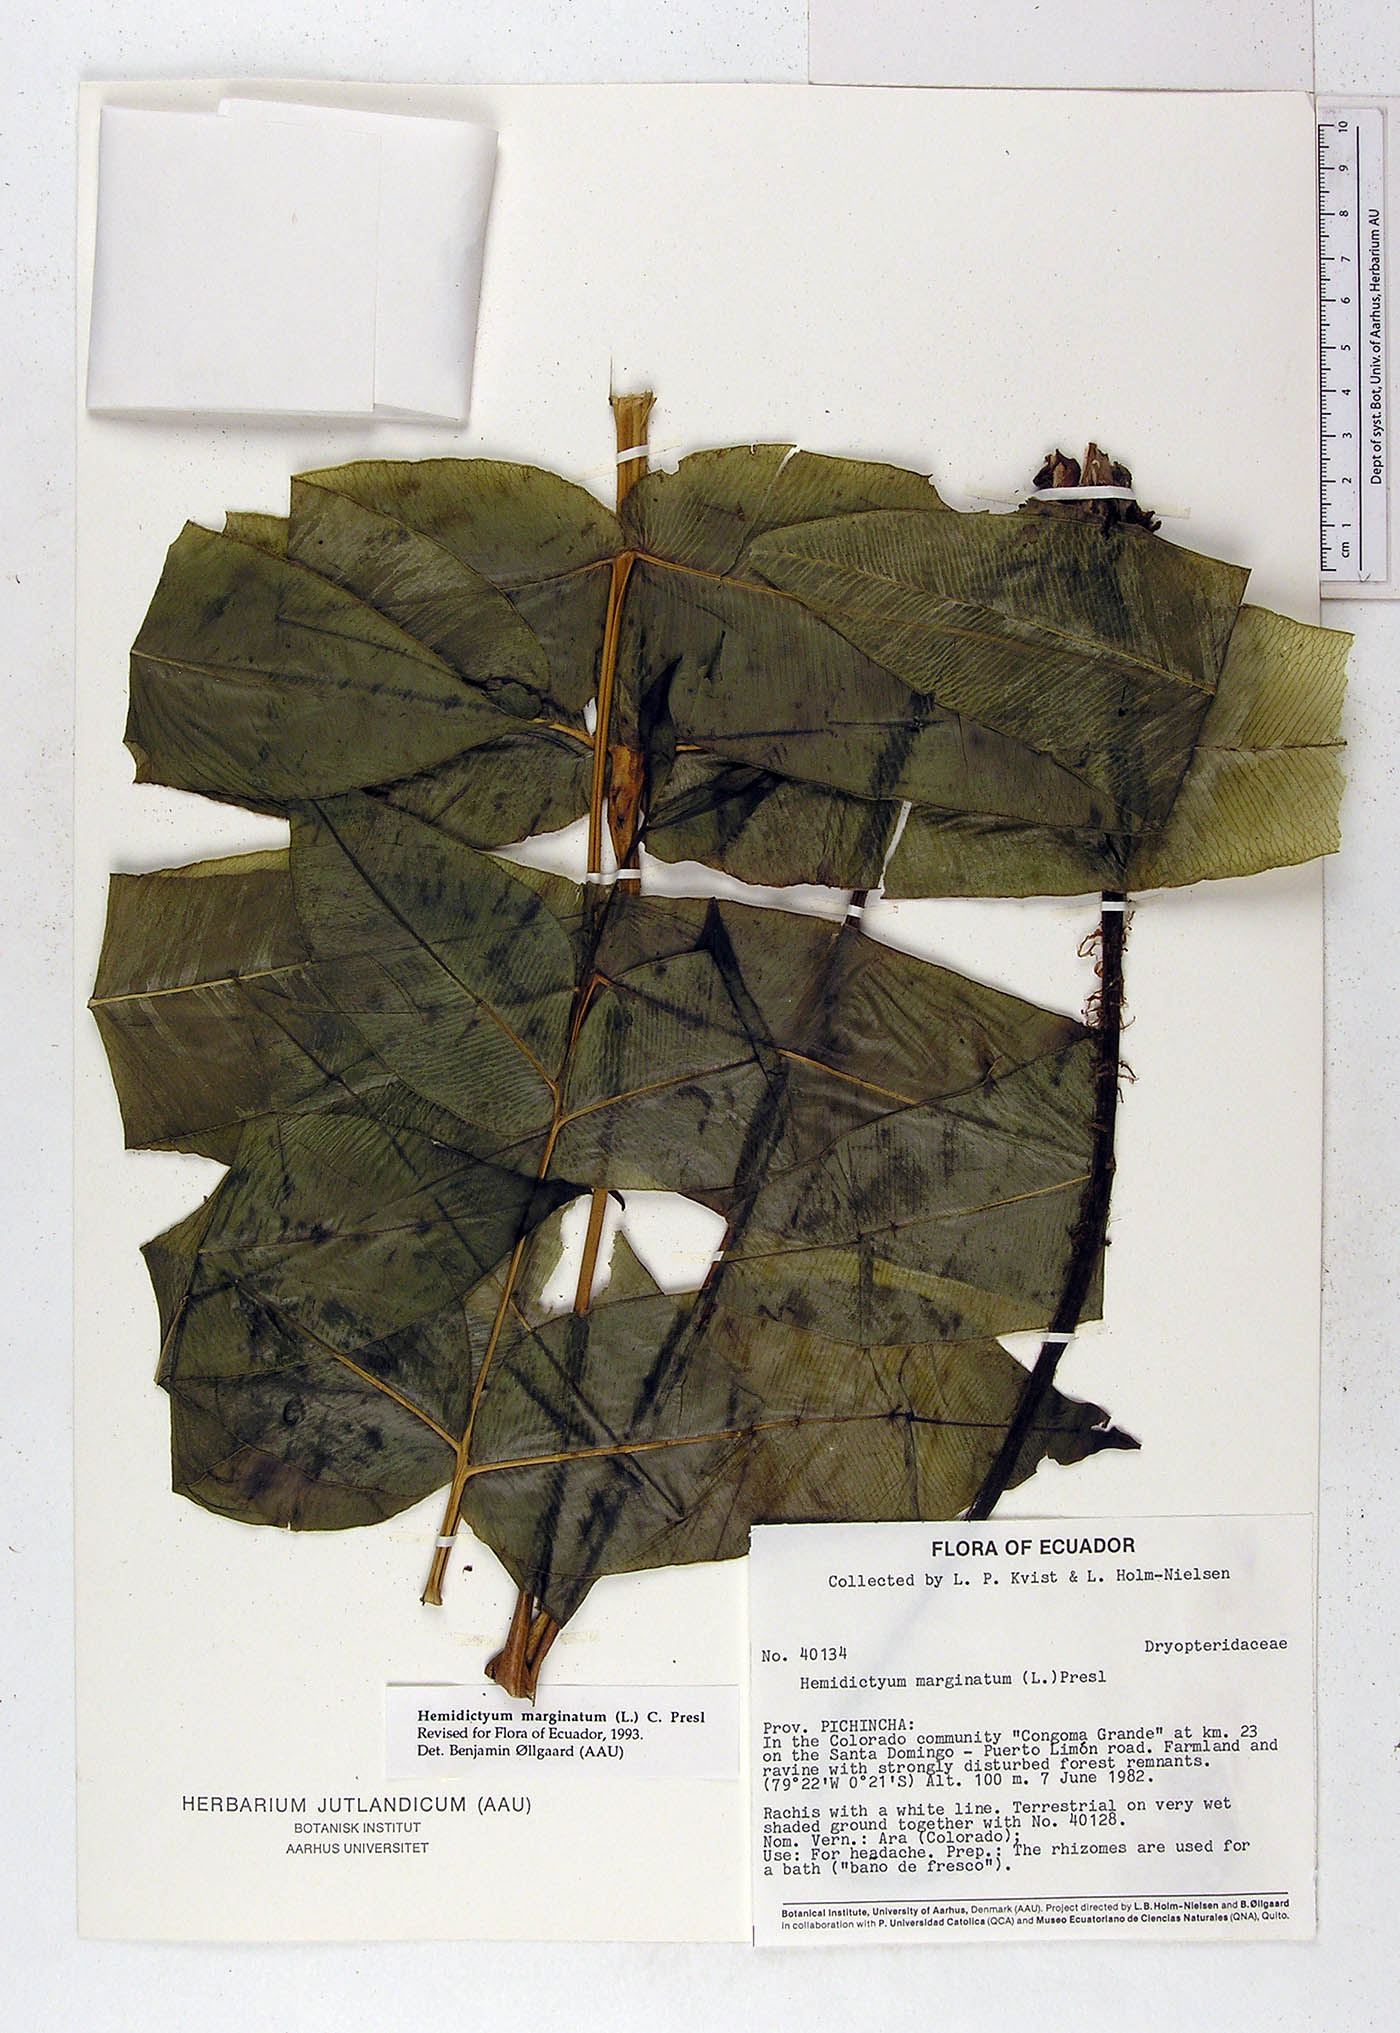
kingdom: Plantae
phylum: Tracheophyta
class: Polypodiopsida
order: Polypodiales
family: Hemidictyaceae
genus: Hemidictyum
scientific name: Hemidictyum marginatum
